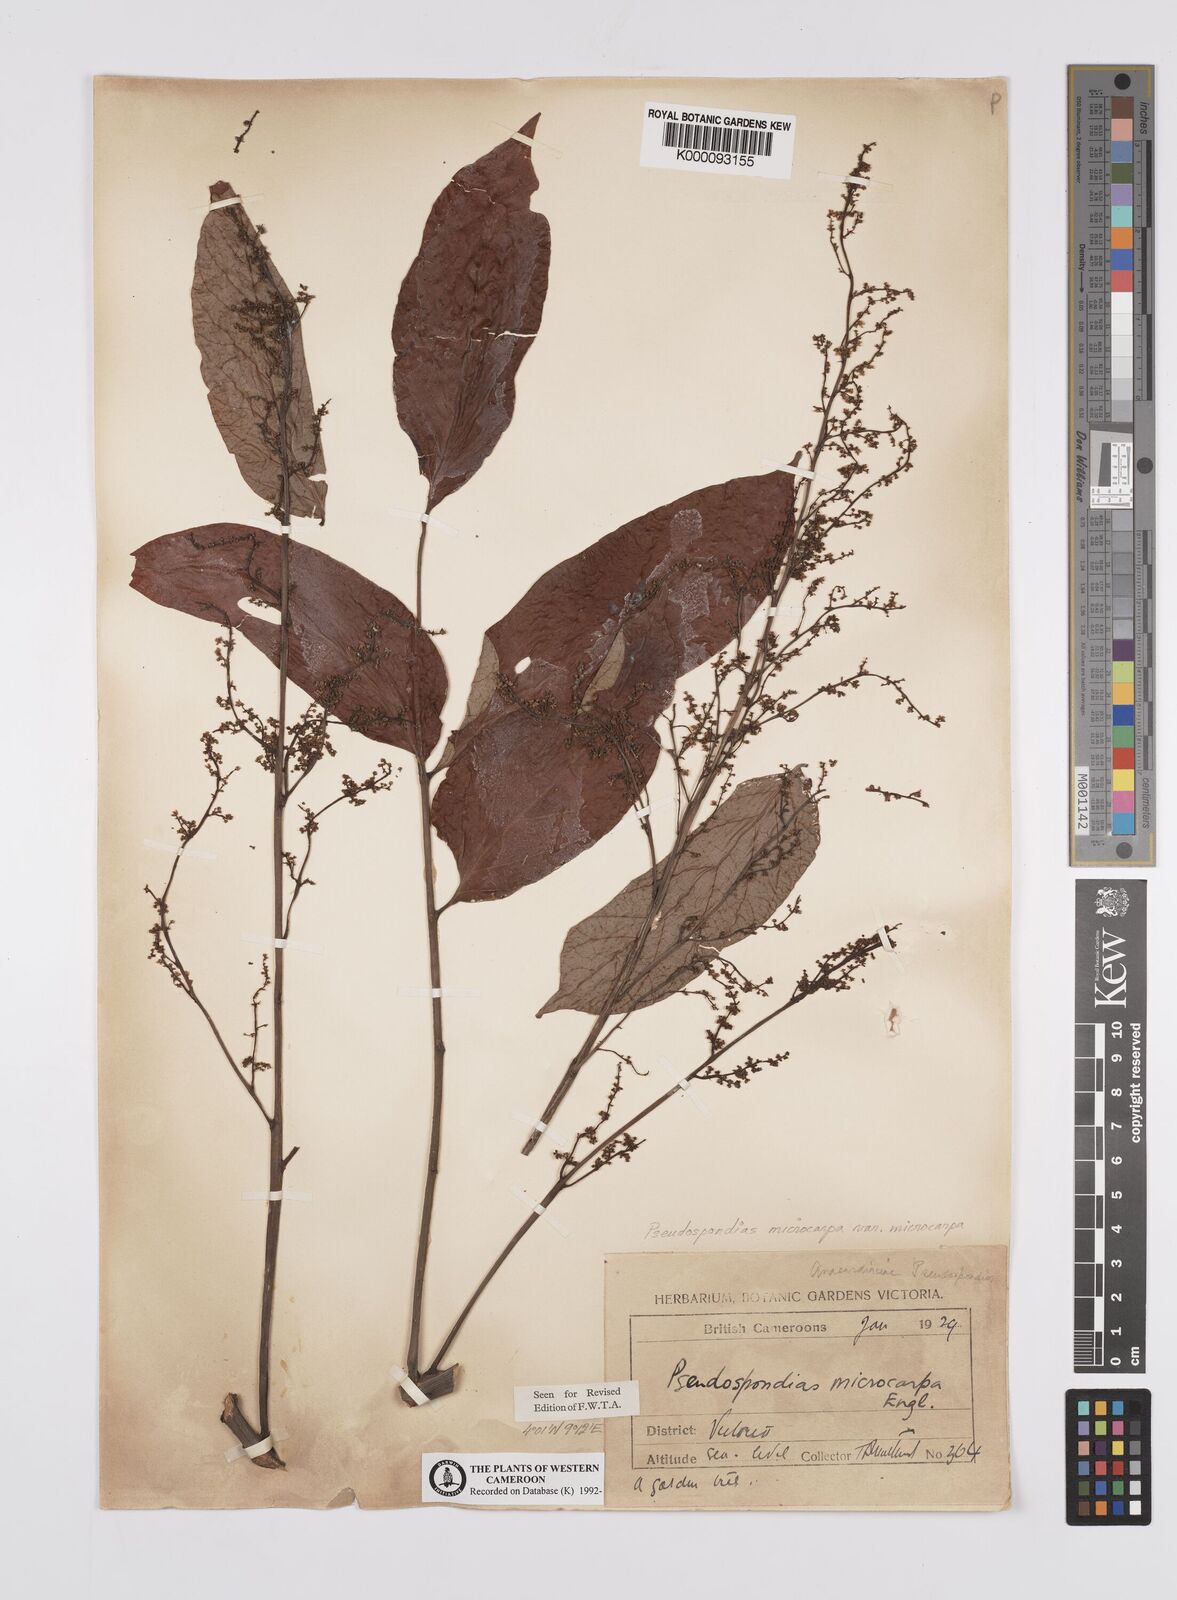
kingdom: Plantae
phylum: Tracheophyta
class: Magnoliopsida
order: Sapindales
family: Anacardiaceae
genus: Pseudospondias
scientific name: Pseudospondias microcarpa
